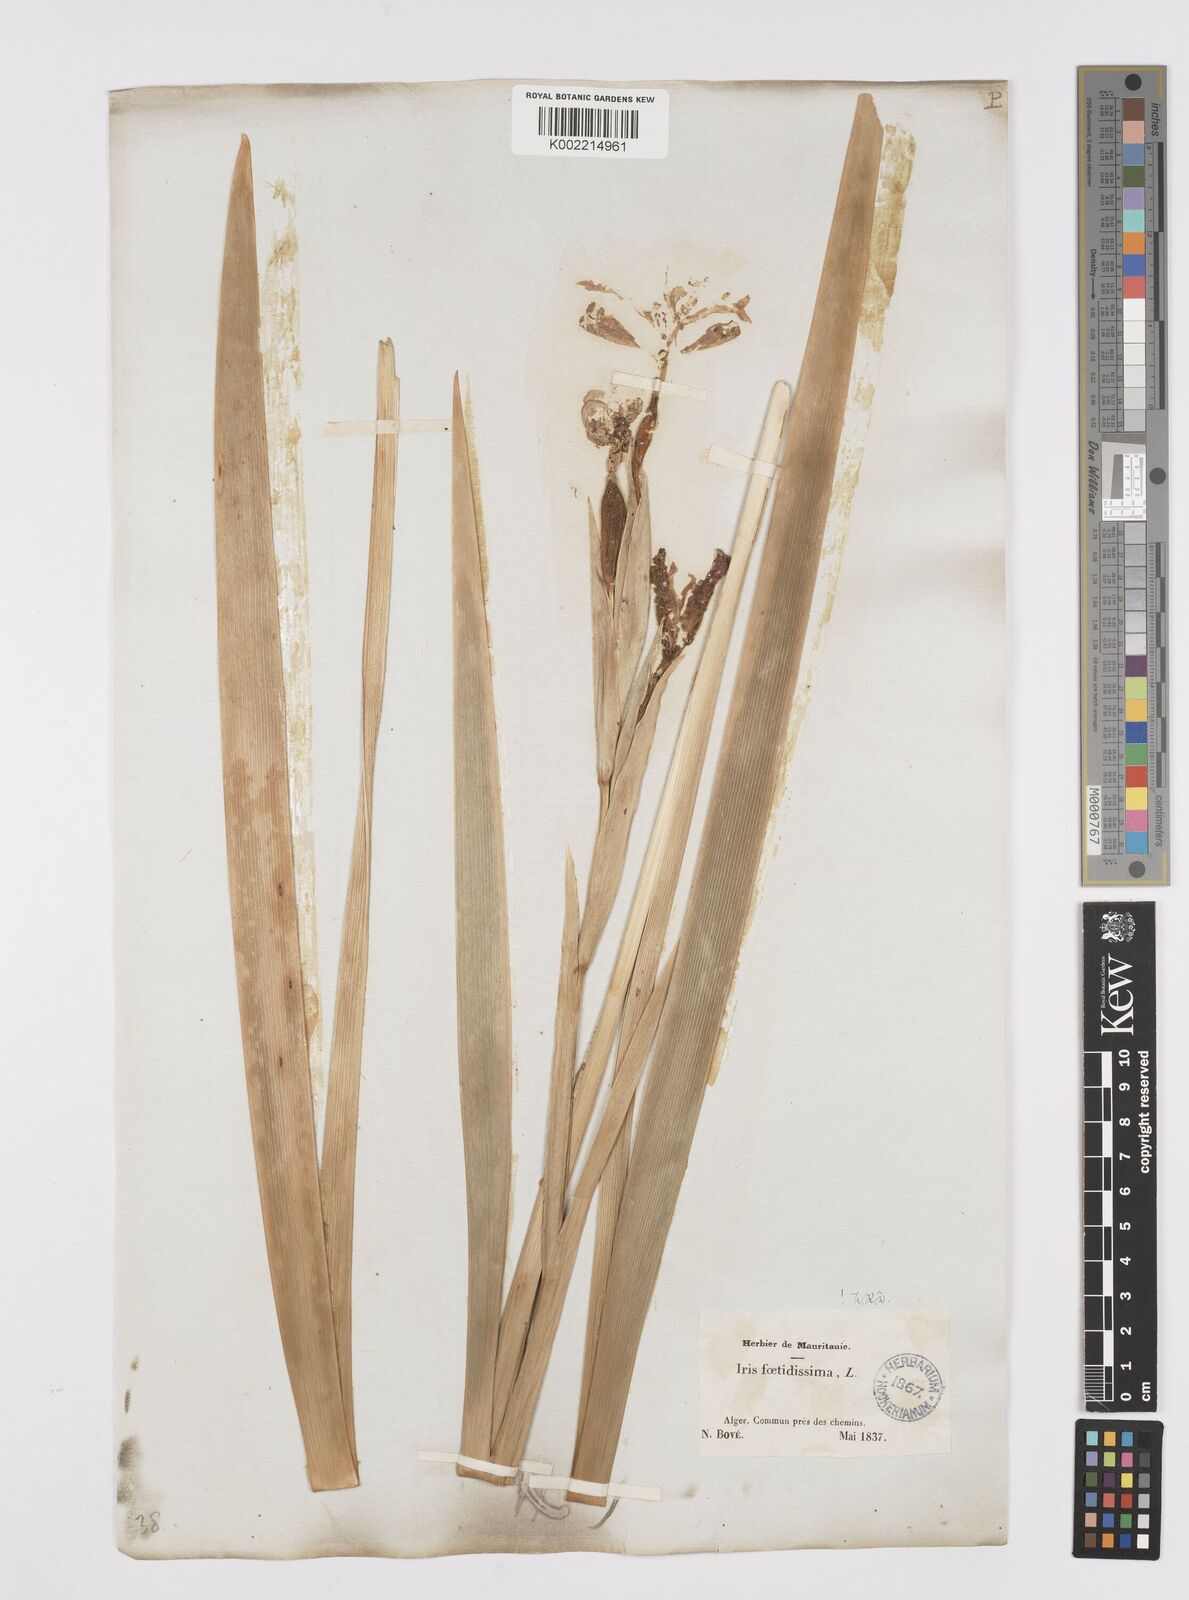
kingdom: Plantae
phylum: Tracheophyta
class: Liliopsida
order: Asparagales
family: Iridaceae
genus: Iris
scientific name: Iris foetidissima
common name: Stinking iris
